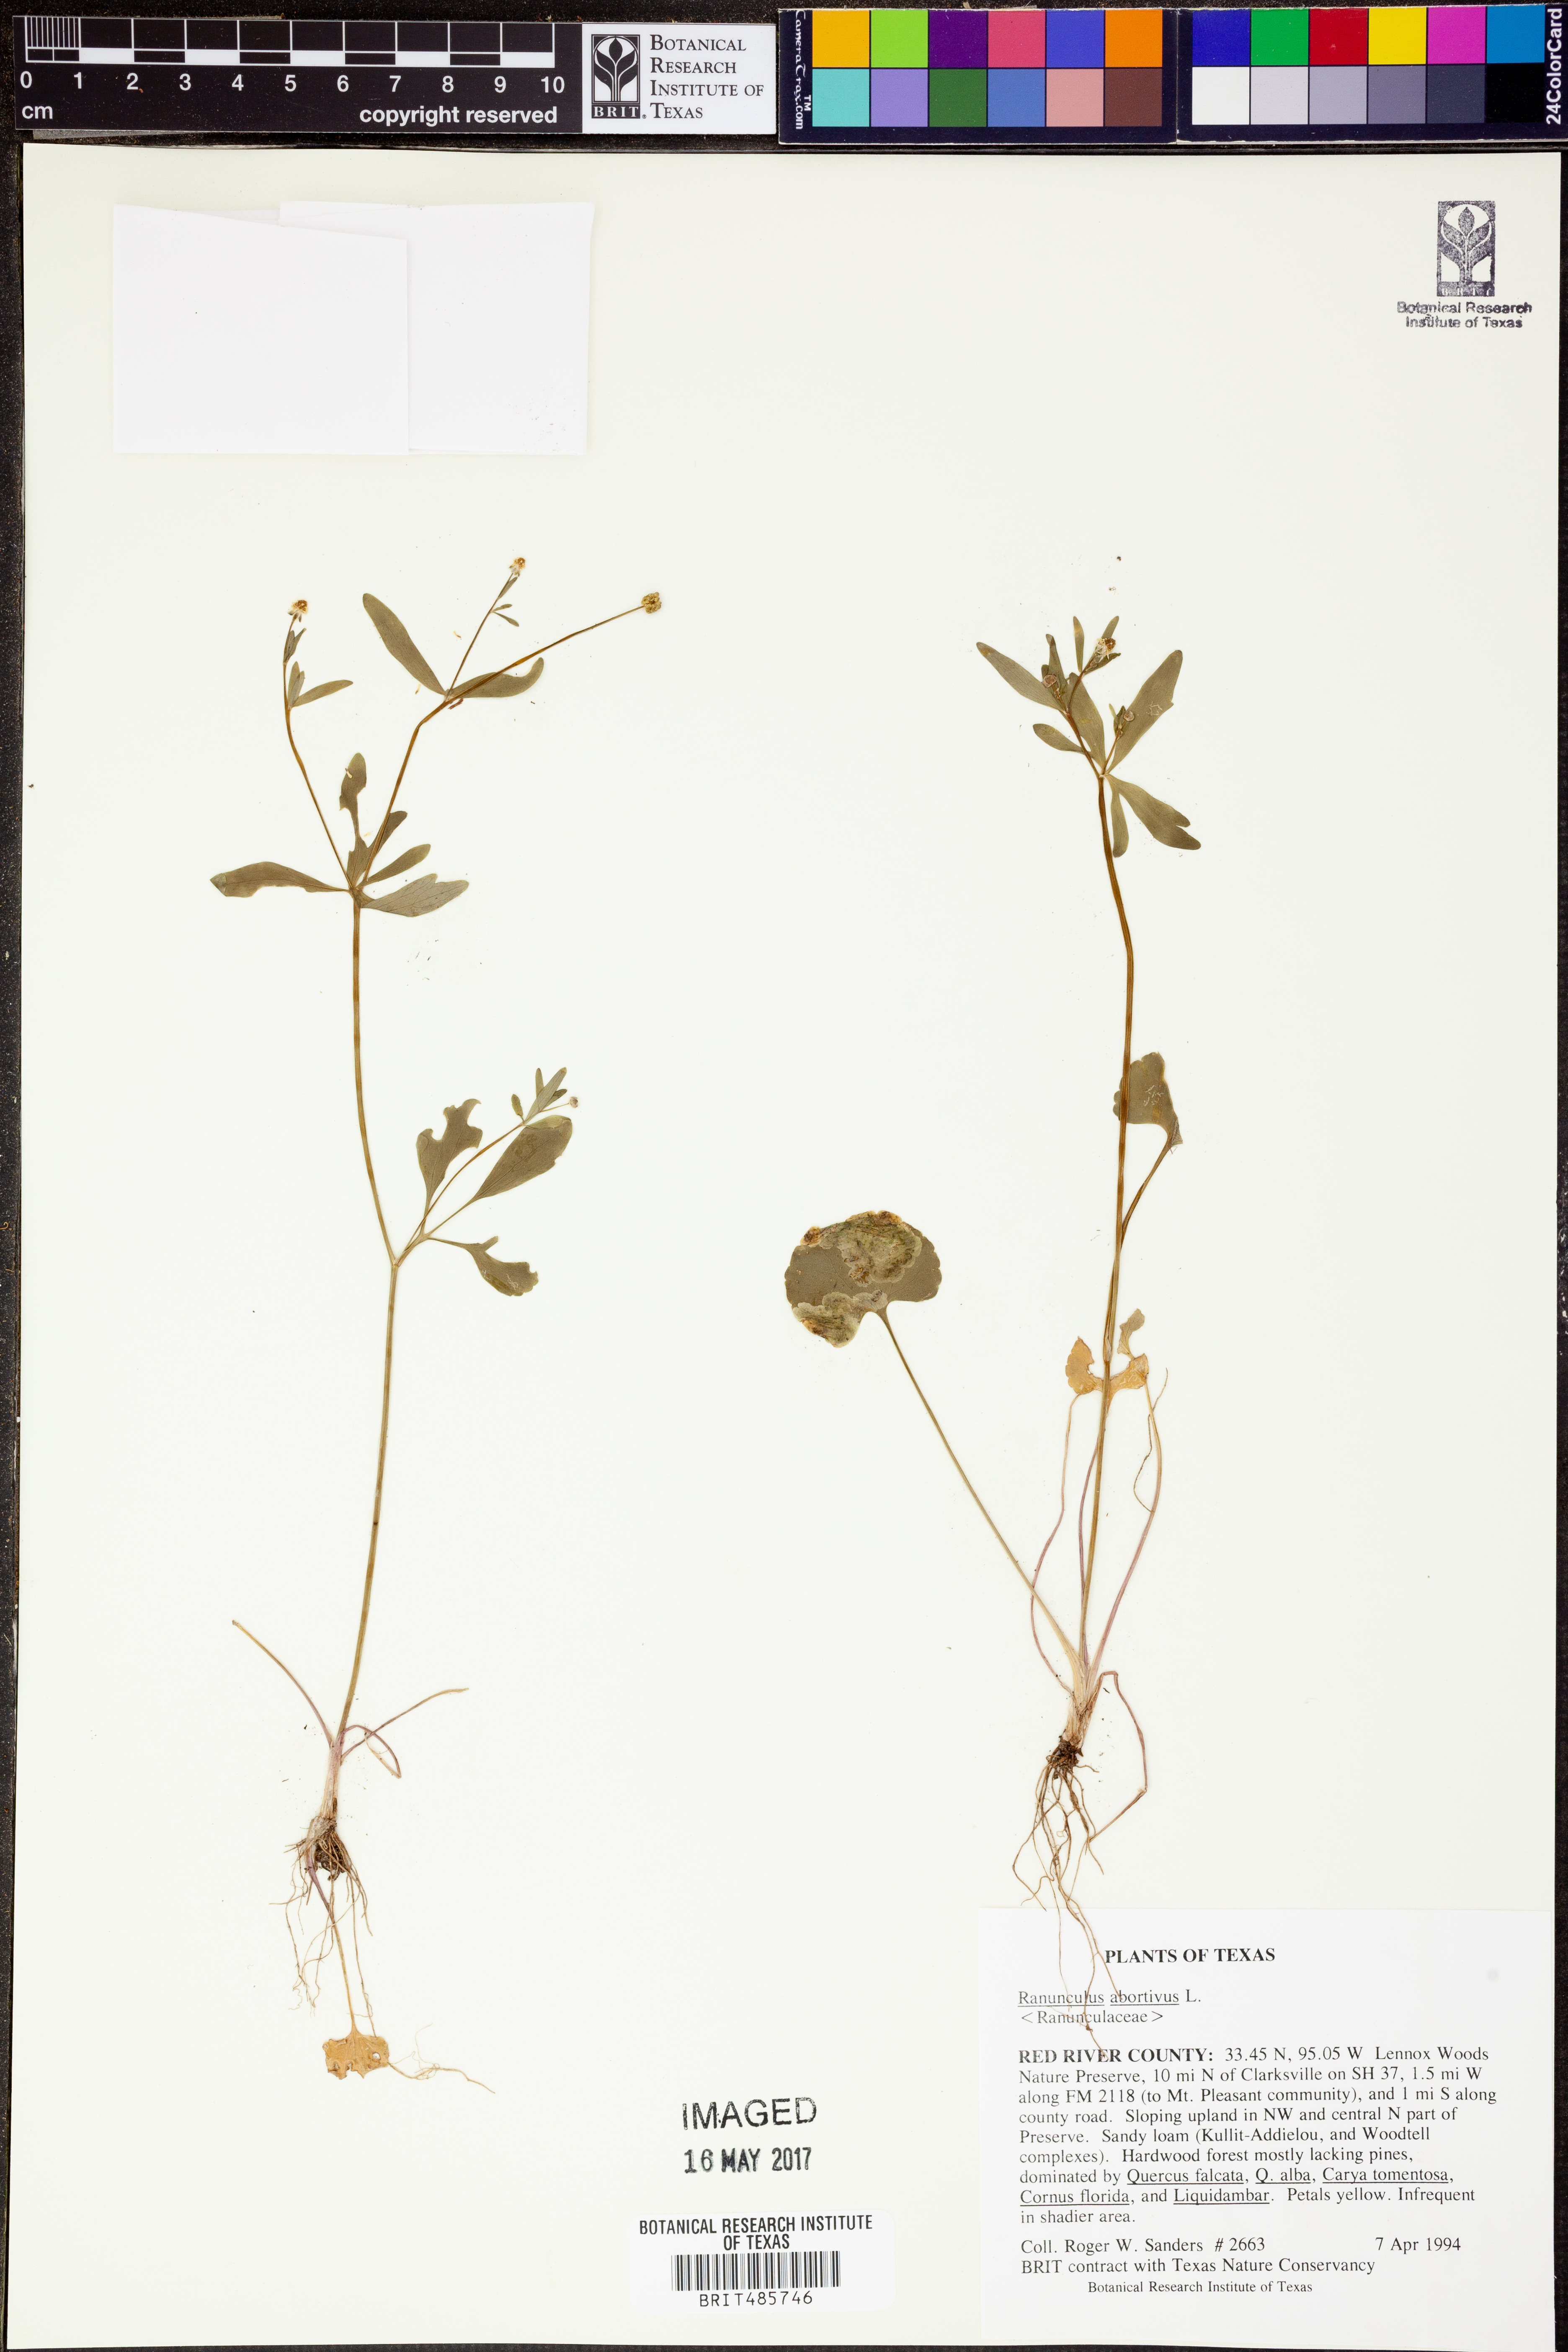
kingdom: Plantae
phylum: Tracheophyta
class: Magnoliopsida
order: Ranunculales
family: Ranunculaceae
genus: Ranunculus
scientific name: Ranunculus abortivus
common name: Early wood buttercup
